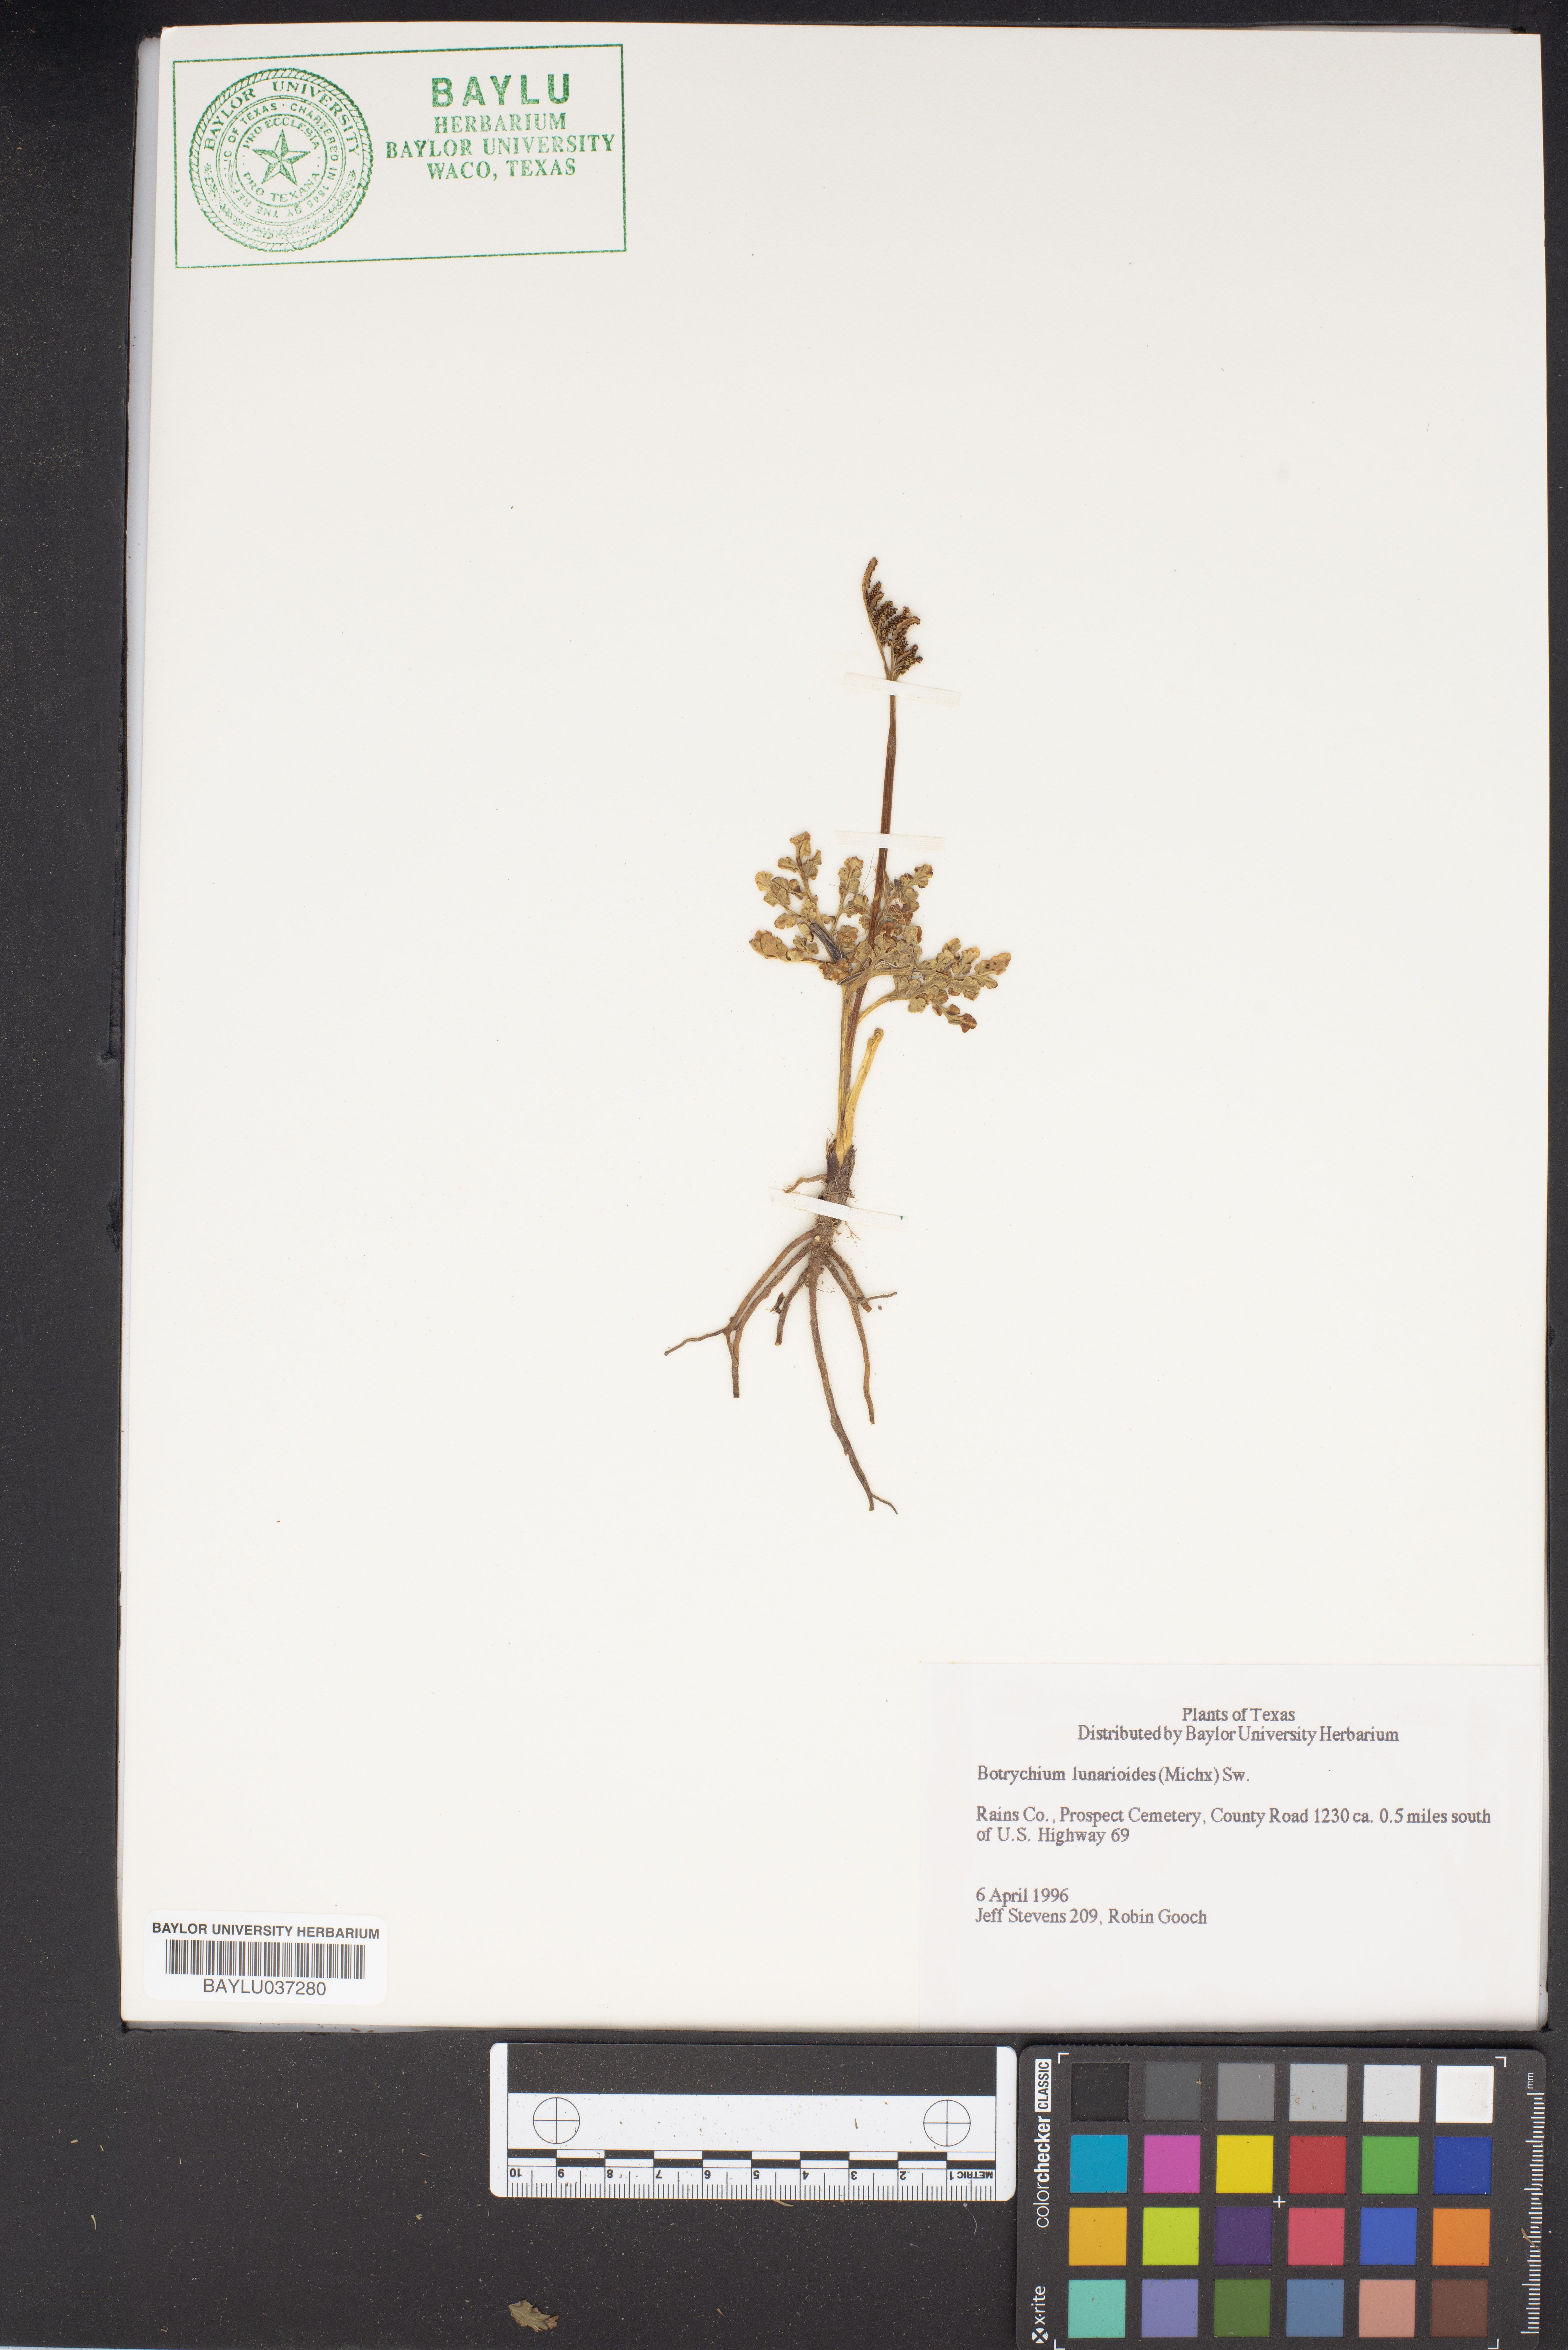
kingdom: Plantae
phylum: Tracheophyta
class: Polypodiopsida
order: Ophioglossales
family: Ophioglossaceae
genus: Sceptridium
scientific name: Sceptridium lunarioides
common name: Prostrate grapefern
